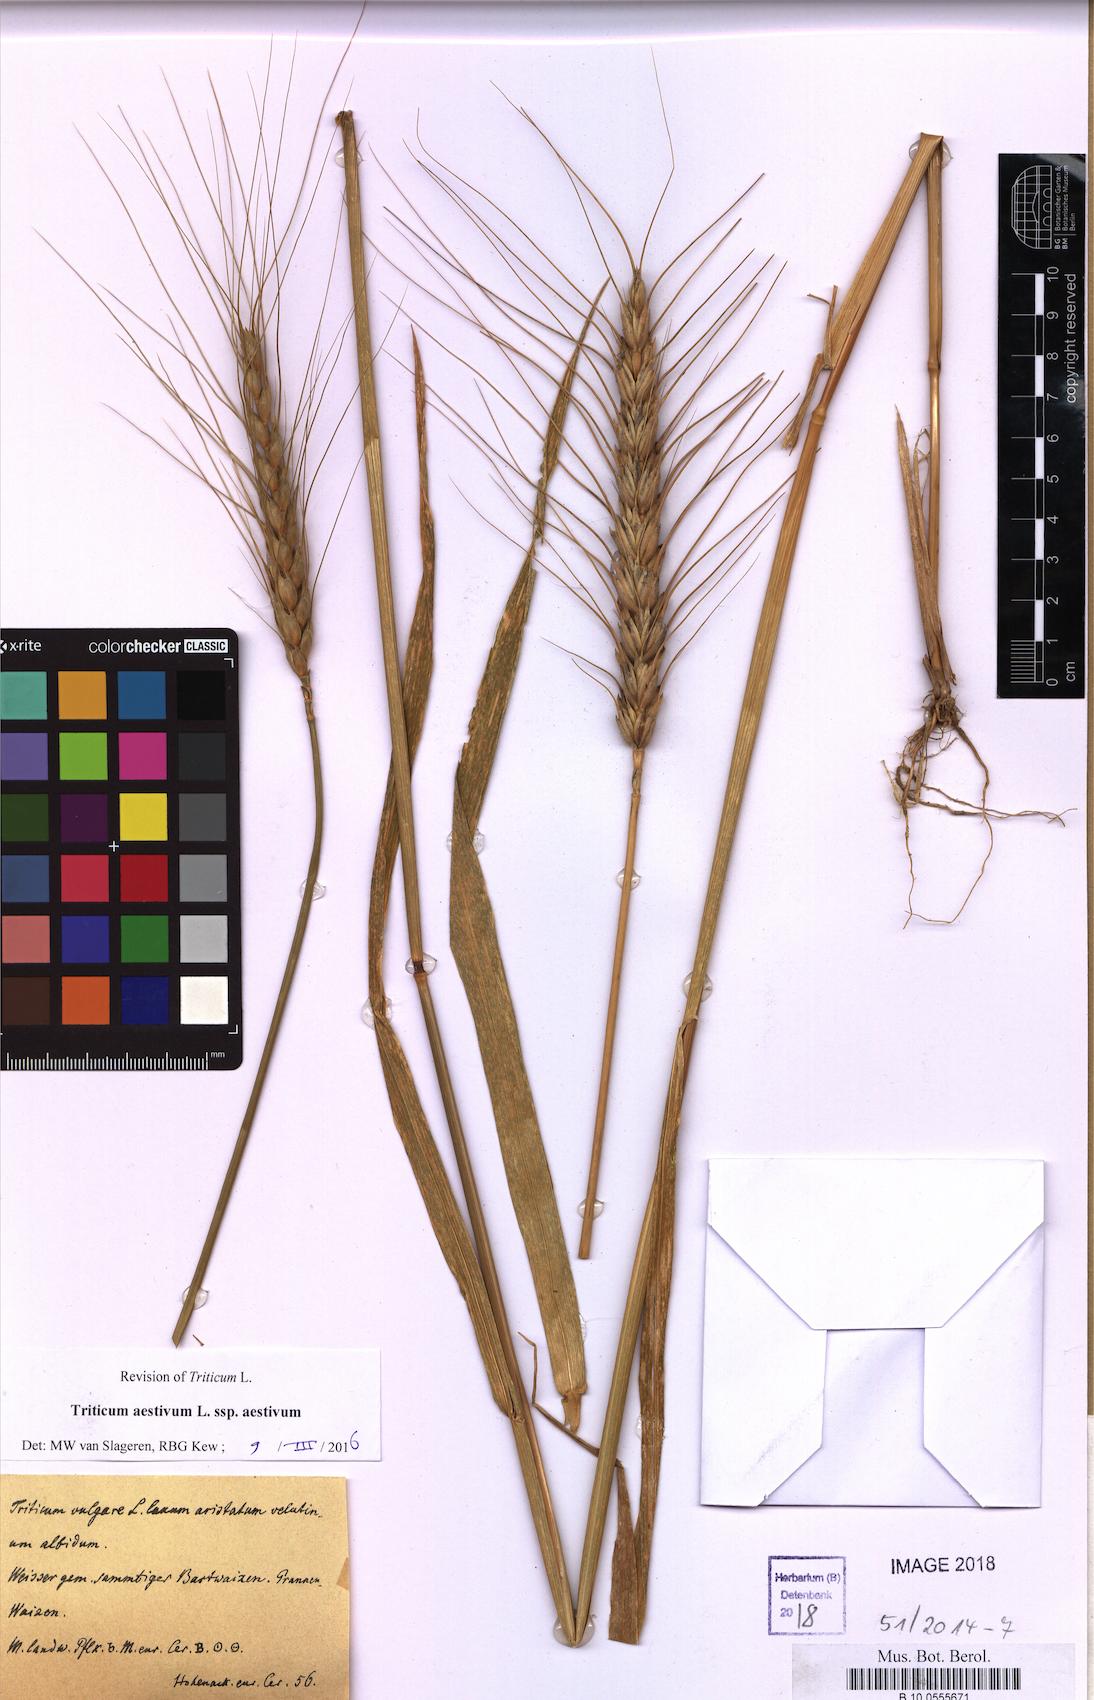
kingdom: Plantae
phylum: Tracheophyta
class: Liliopsida
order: Poales
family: Poaceae
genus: Triticum
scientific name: Triticum aestivum
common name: Common wheat
